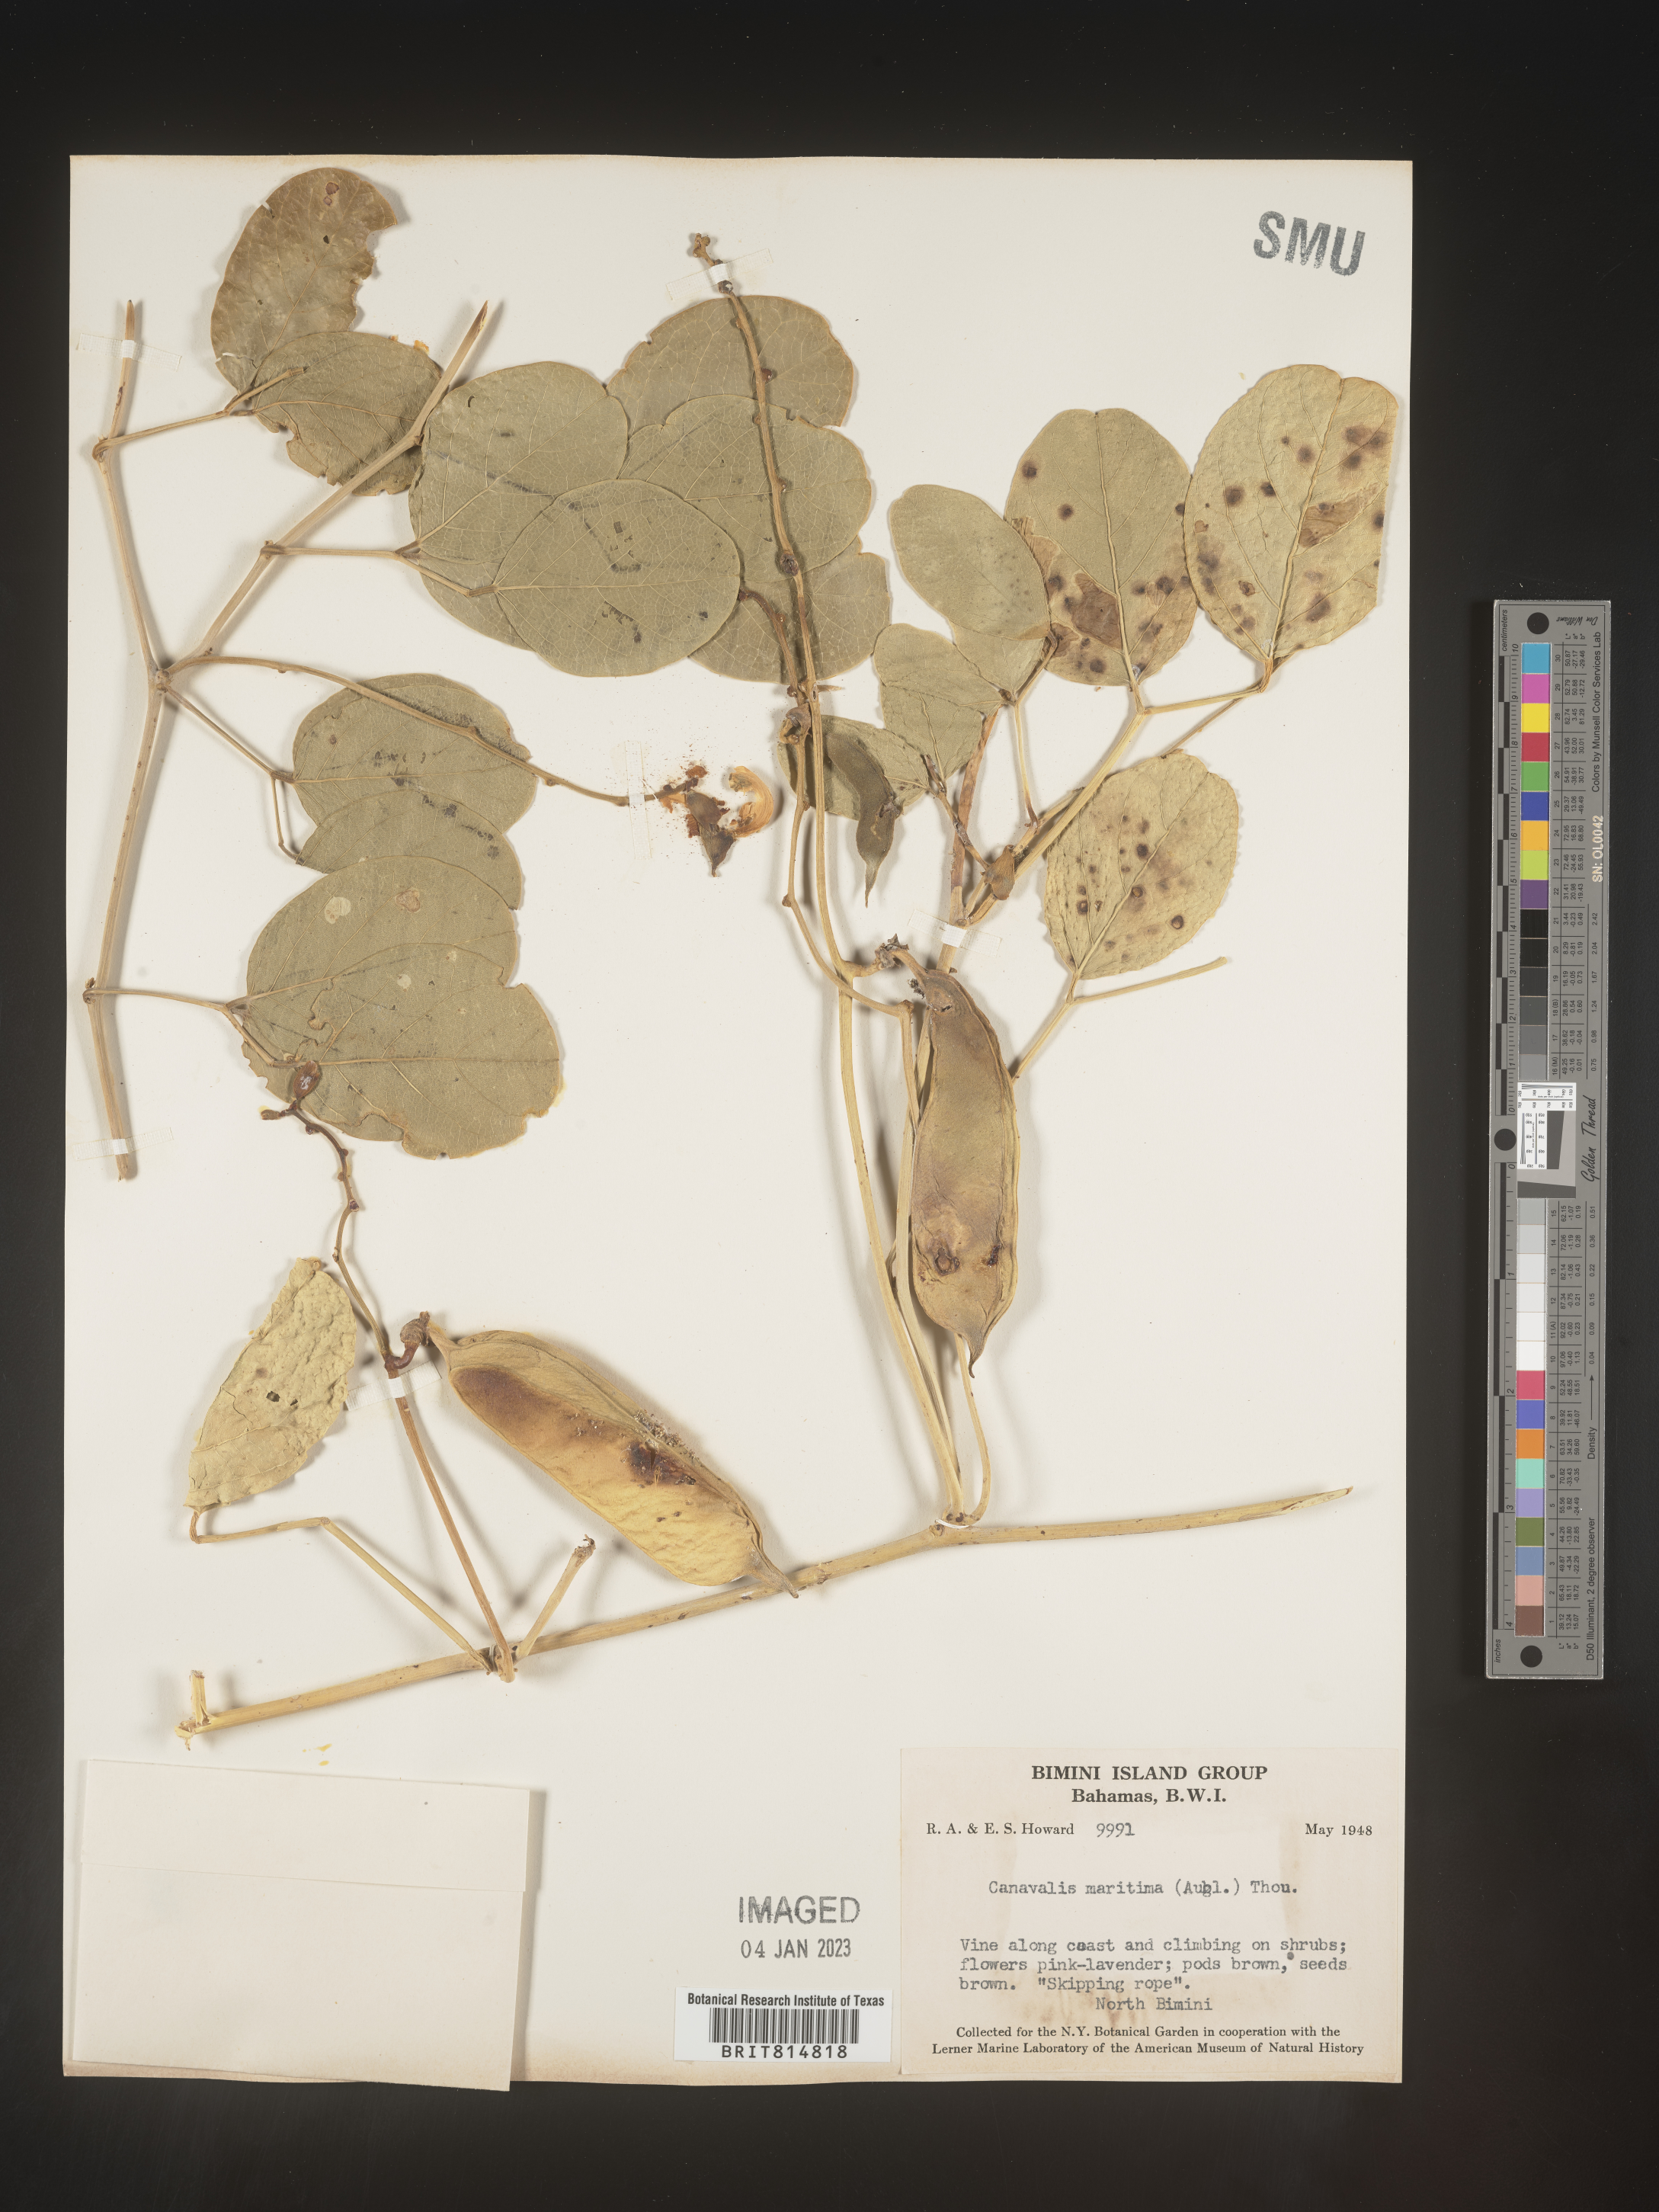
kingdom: Plantae
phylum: Tracheophyta
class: Magnoliopsida
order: Fabales
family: Fabaceae
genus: Canavalia
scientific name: Canavalia
